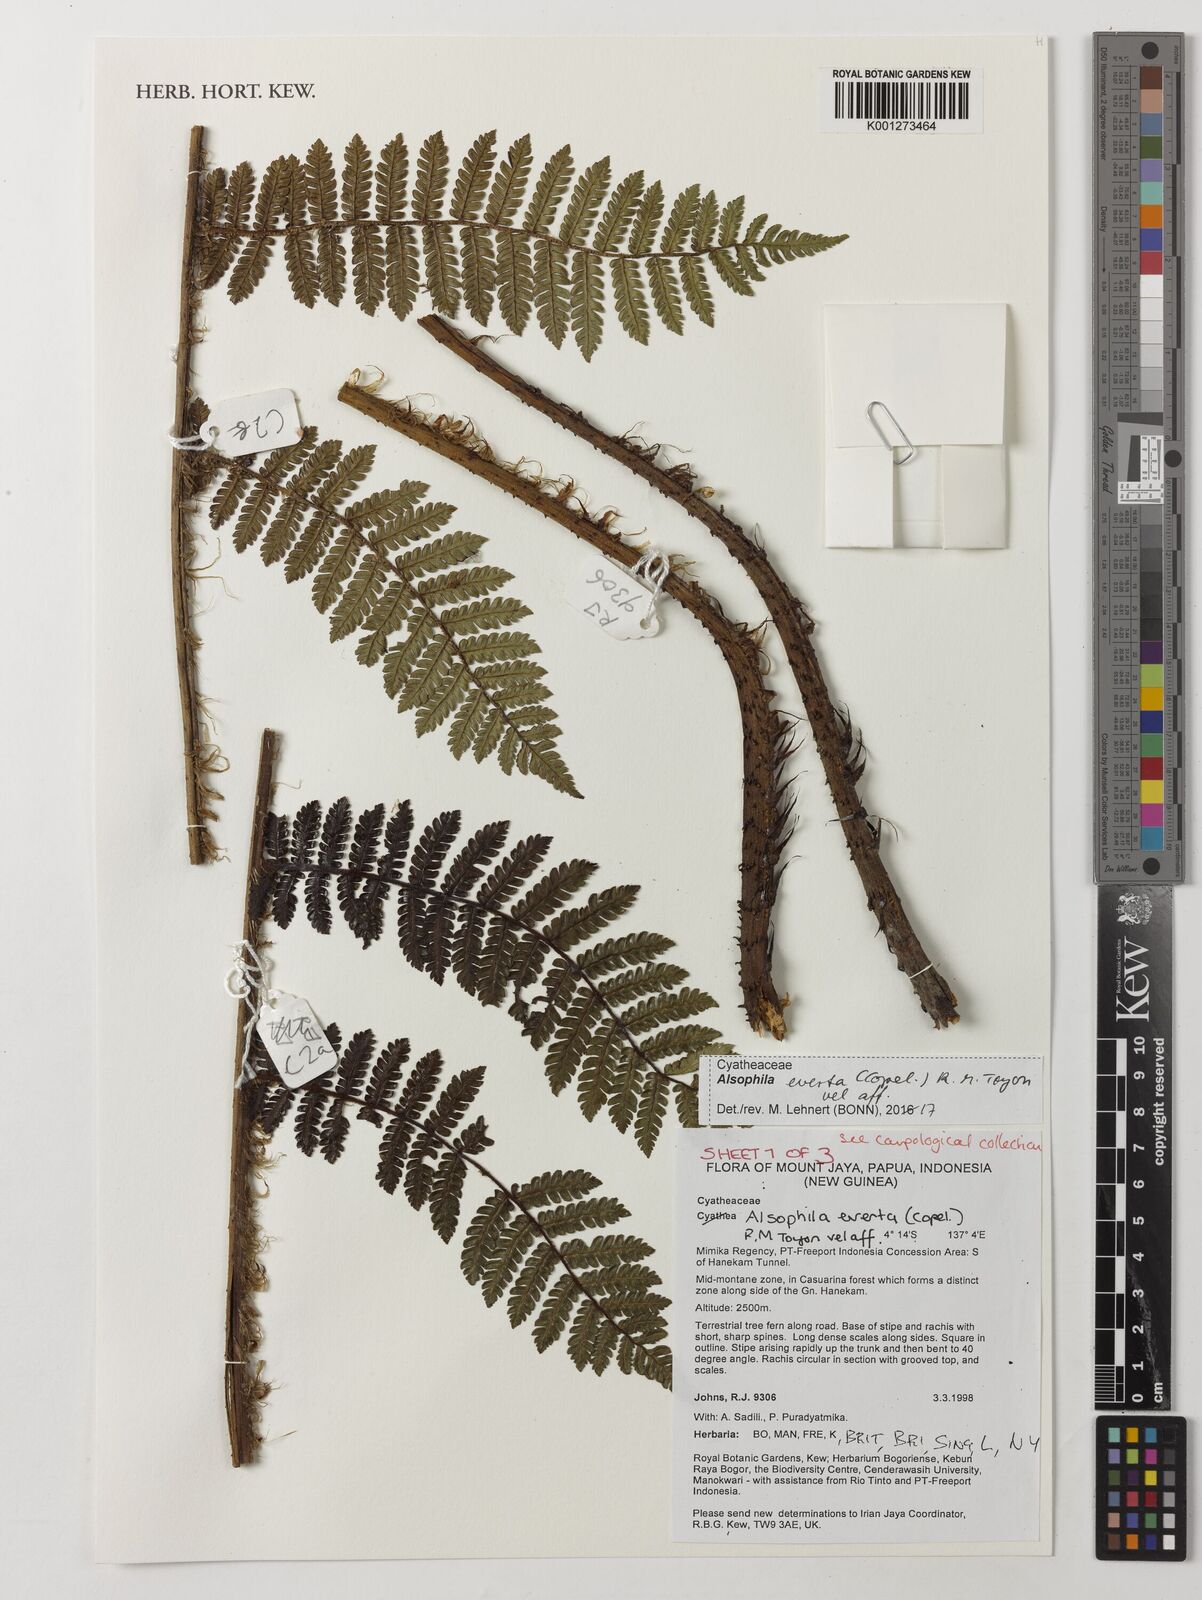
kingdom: Plantae
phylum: Tracheophyta
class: Polypodiopsida
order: Cyatheales
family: Cyatheaceae
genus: Alsophila
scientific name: Alsophila everta
